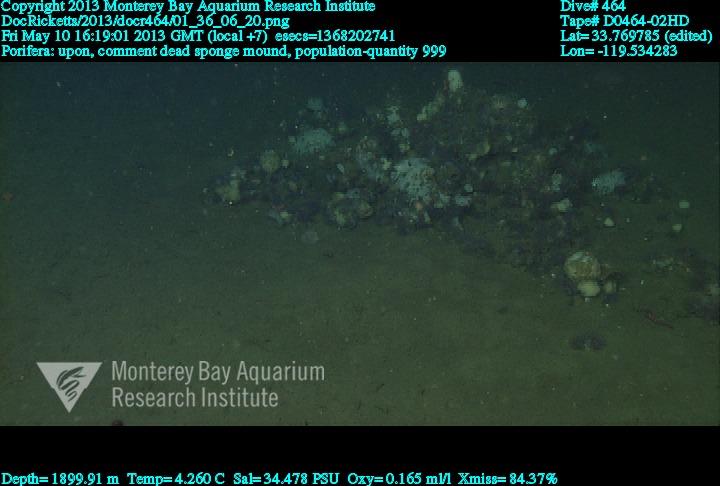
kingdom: Animalia
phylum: Porifera
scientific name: Porifera
